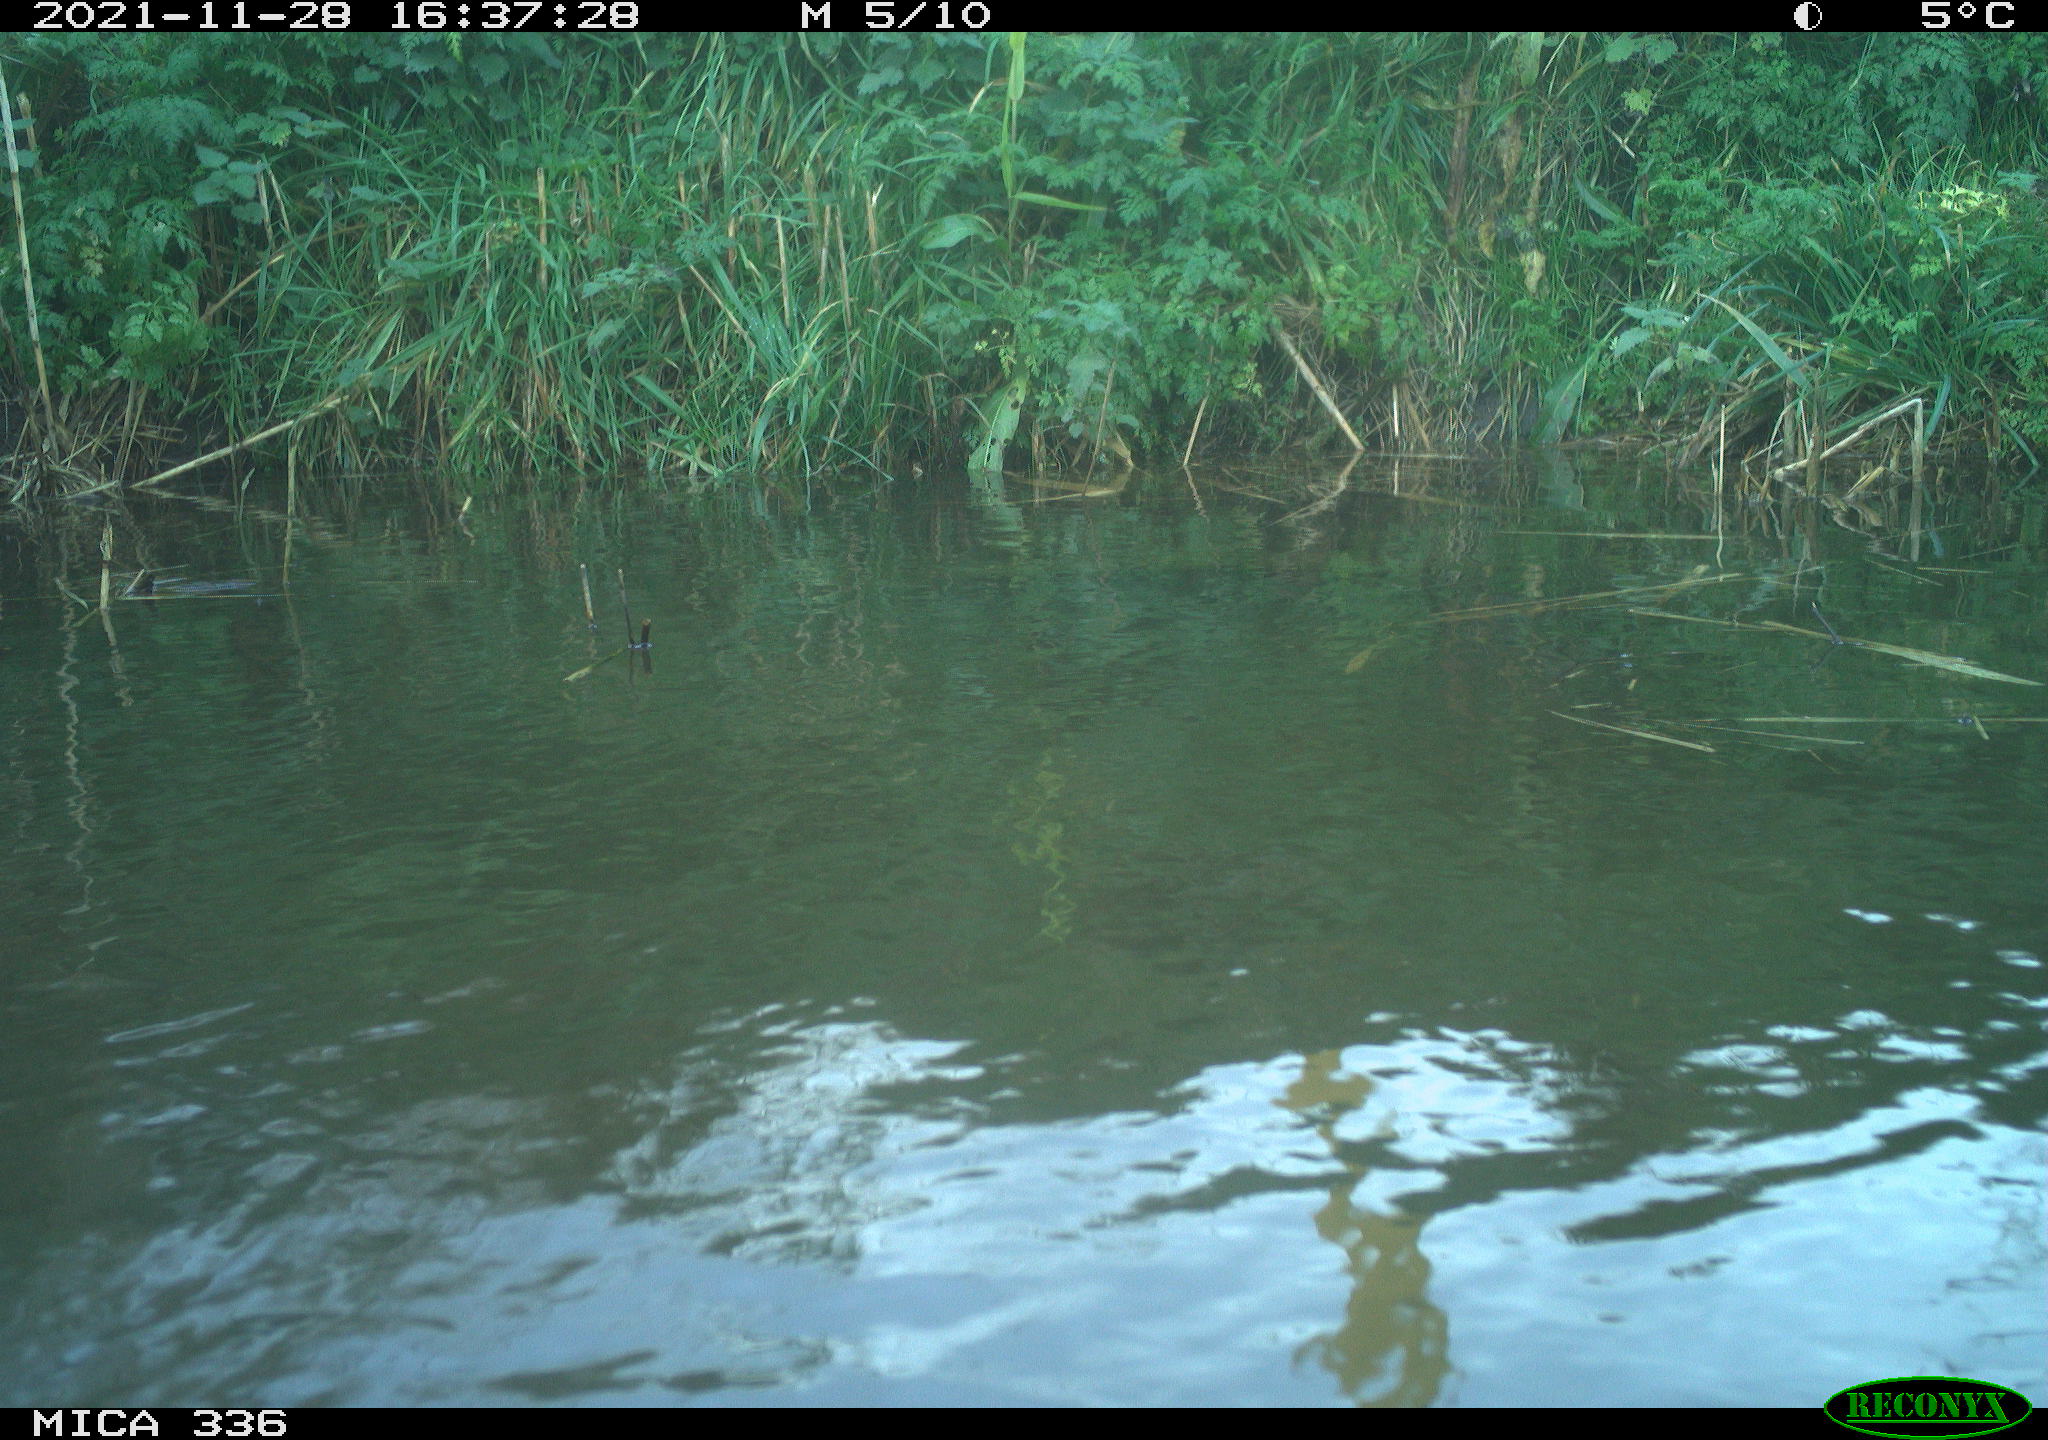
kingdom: Animalia
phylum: Chordata
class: Aves
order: Gruiformes
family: Rallidae
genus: Gallinula
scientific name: Gallinula chloropus
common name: Common moorhen
